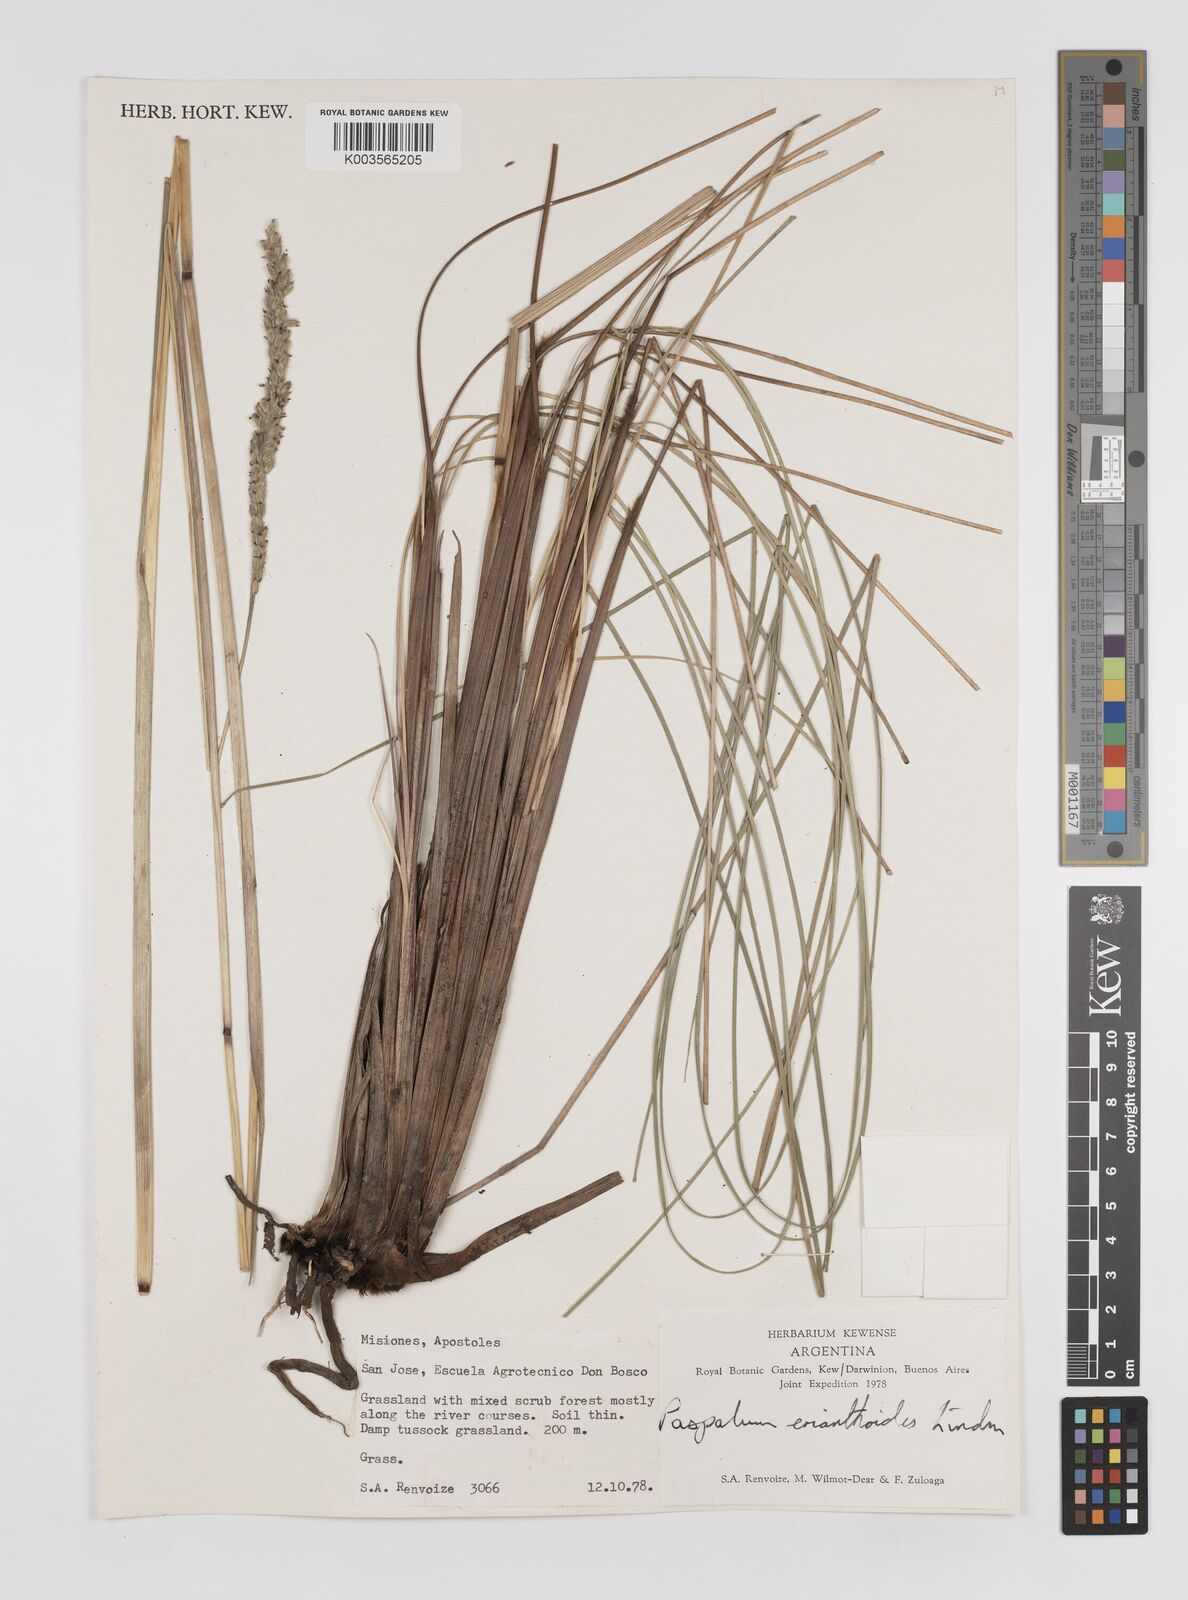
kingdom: Plantae
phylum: Tracheophyta
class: Liliopsida
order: Poales
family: Poaceae
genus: Paspalum
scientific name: Paspalum erianthoides
